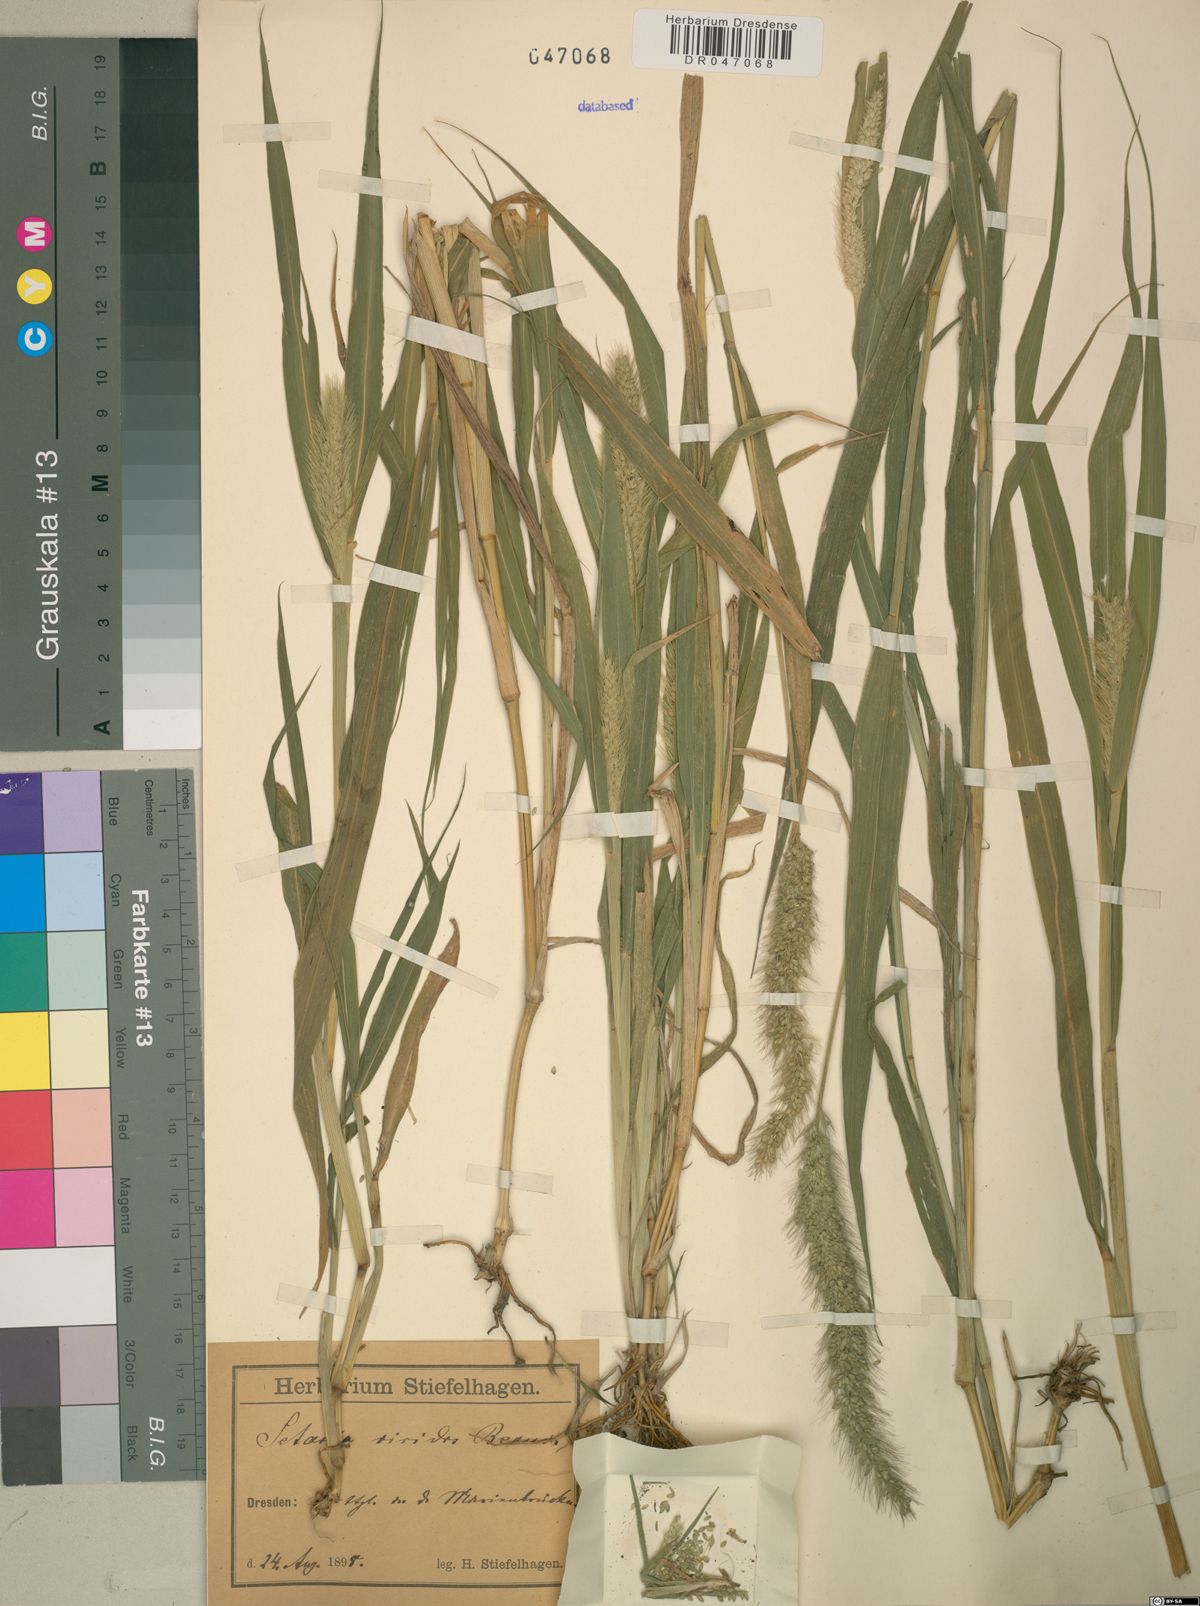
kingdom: Plantae
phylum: Tracheophyta
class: Liliopsida
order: Poales
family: Poaceae
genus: Setaria
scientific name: Setaria viridis
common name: Green bristlegrass
